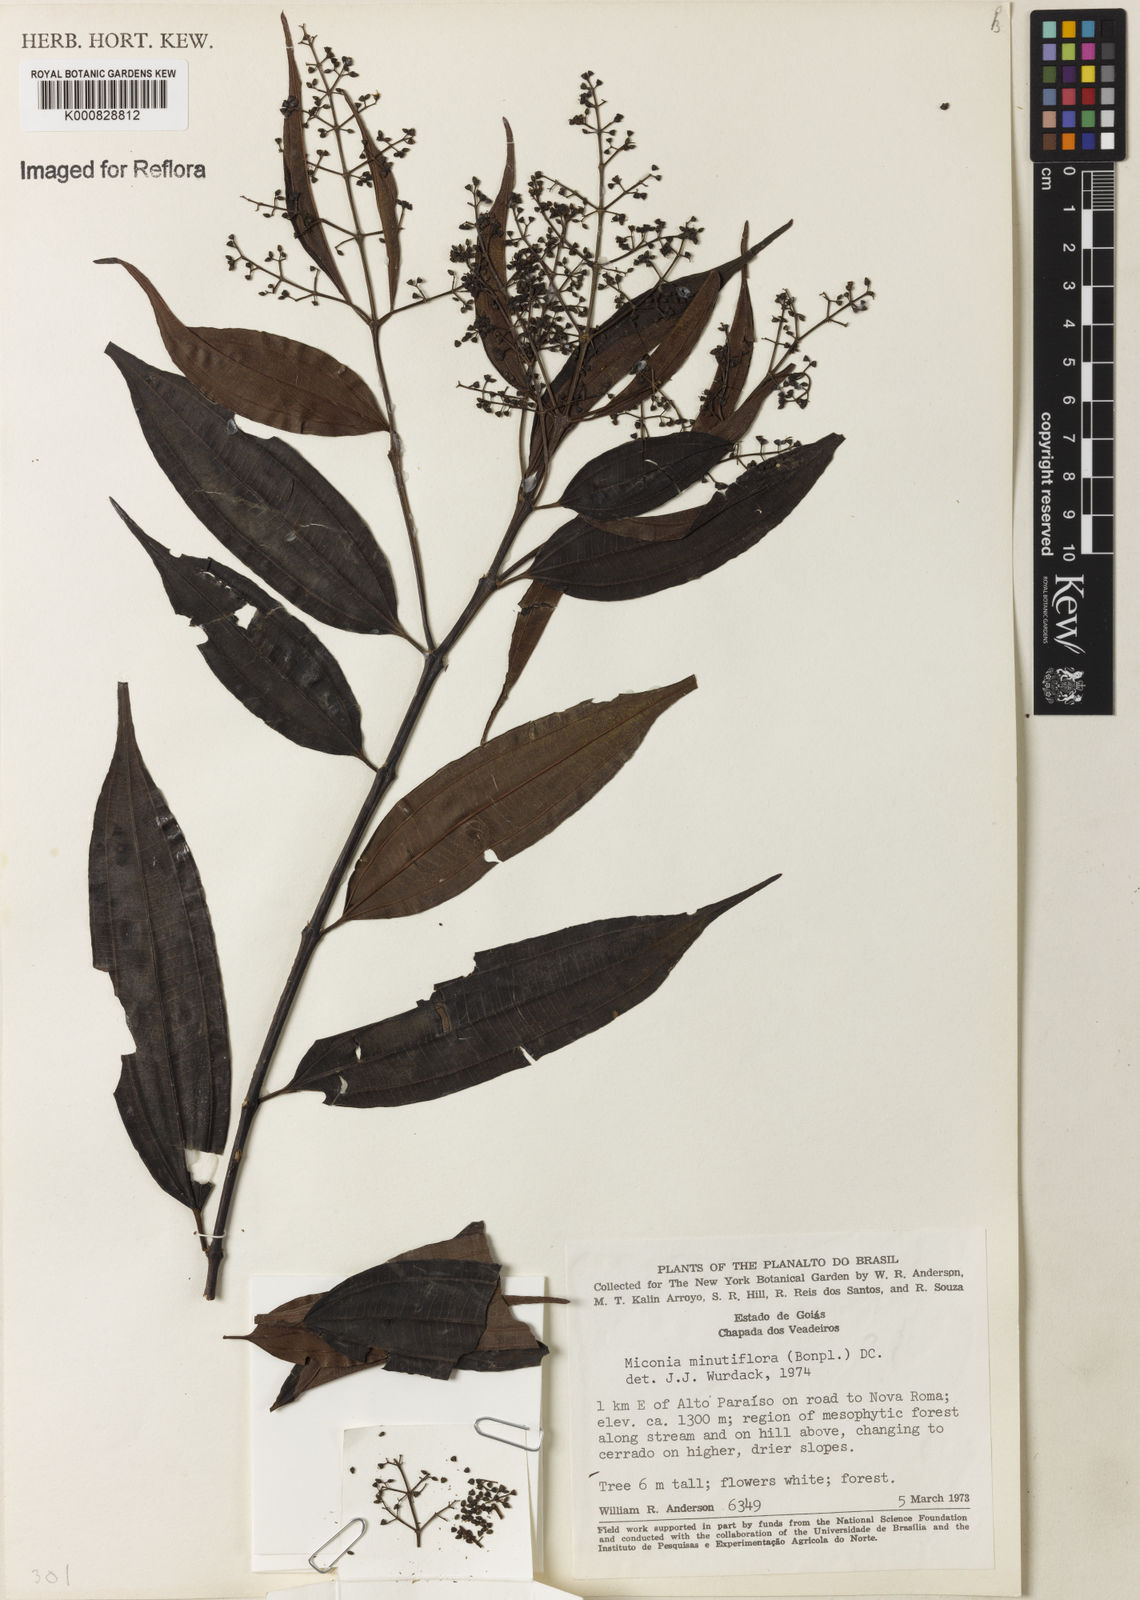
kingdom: Plantae
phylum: Tracheophyta
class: Magnoliopsida
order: Myrtales
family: Melastomataceae
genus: Miconia
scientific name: Miconia minutiflora
